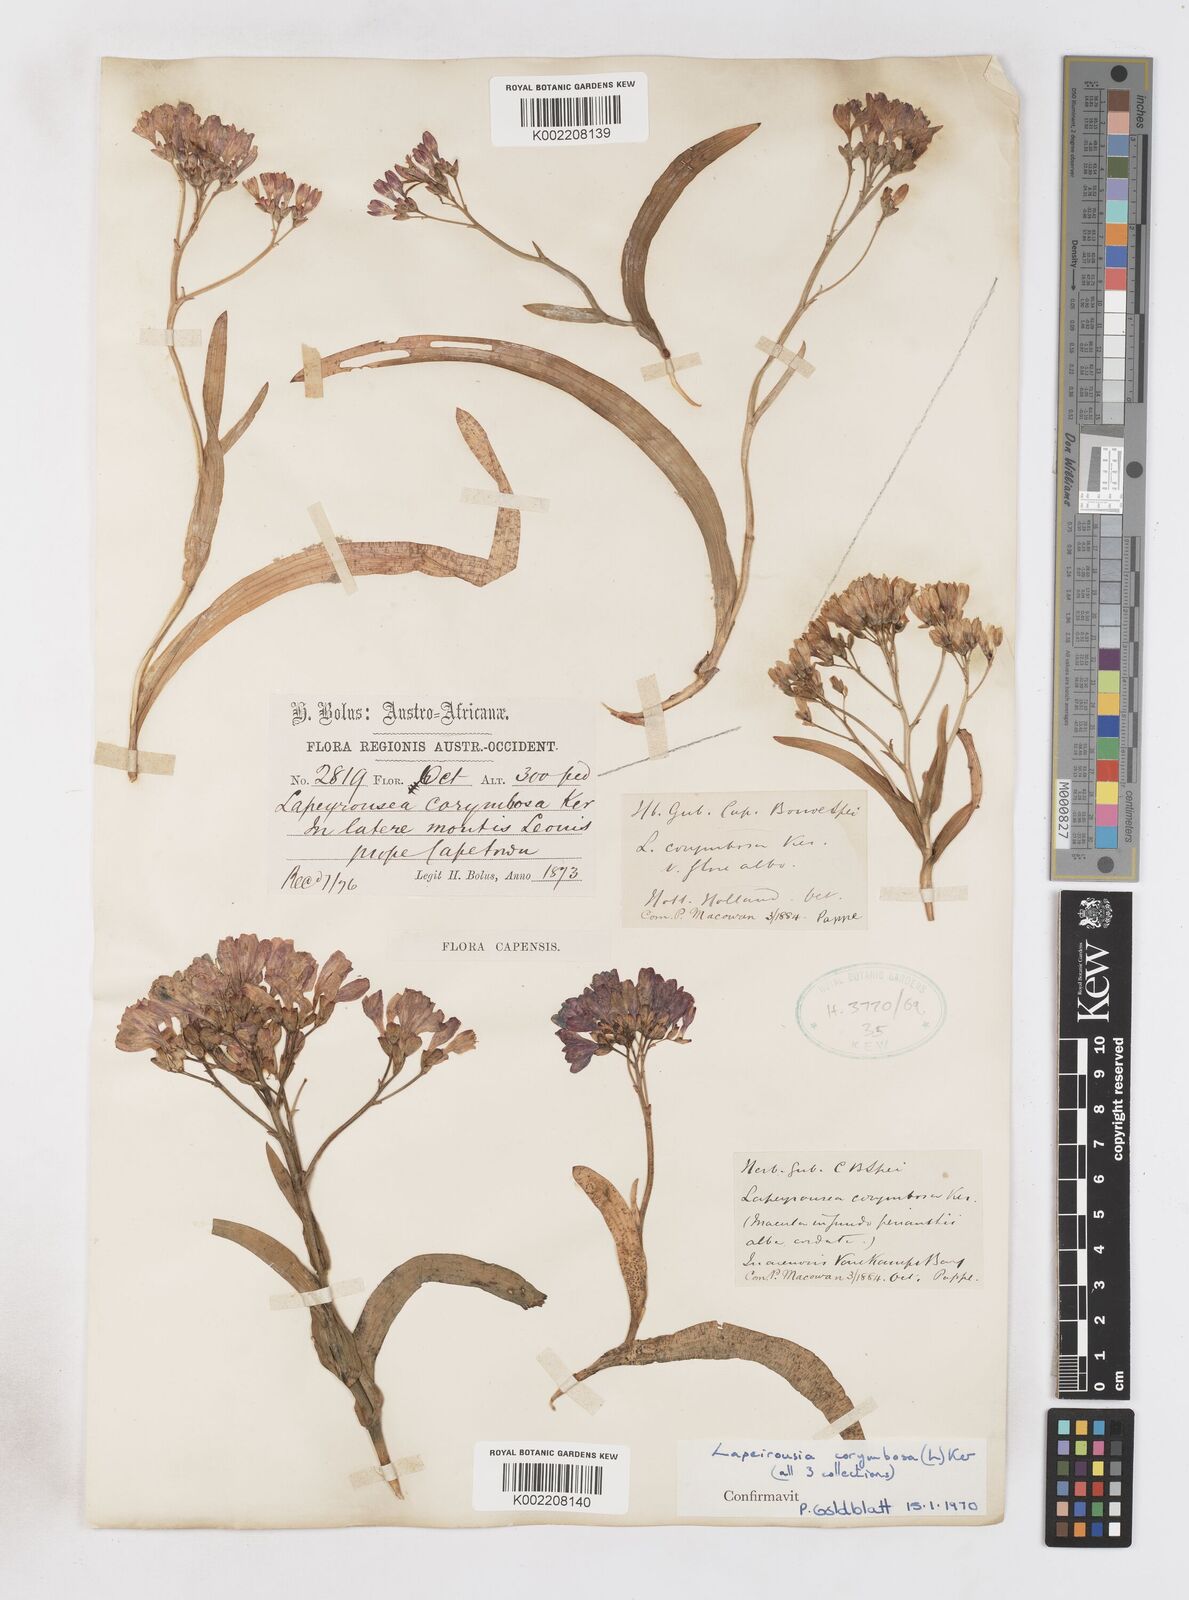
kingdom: Plantae
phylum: Tracheophyta
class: Liliopsida
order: Asparagales
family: Iridaceae
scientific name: Iridaceae
